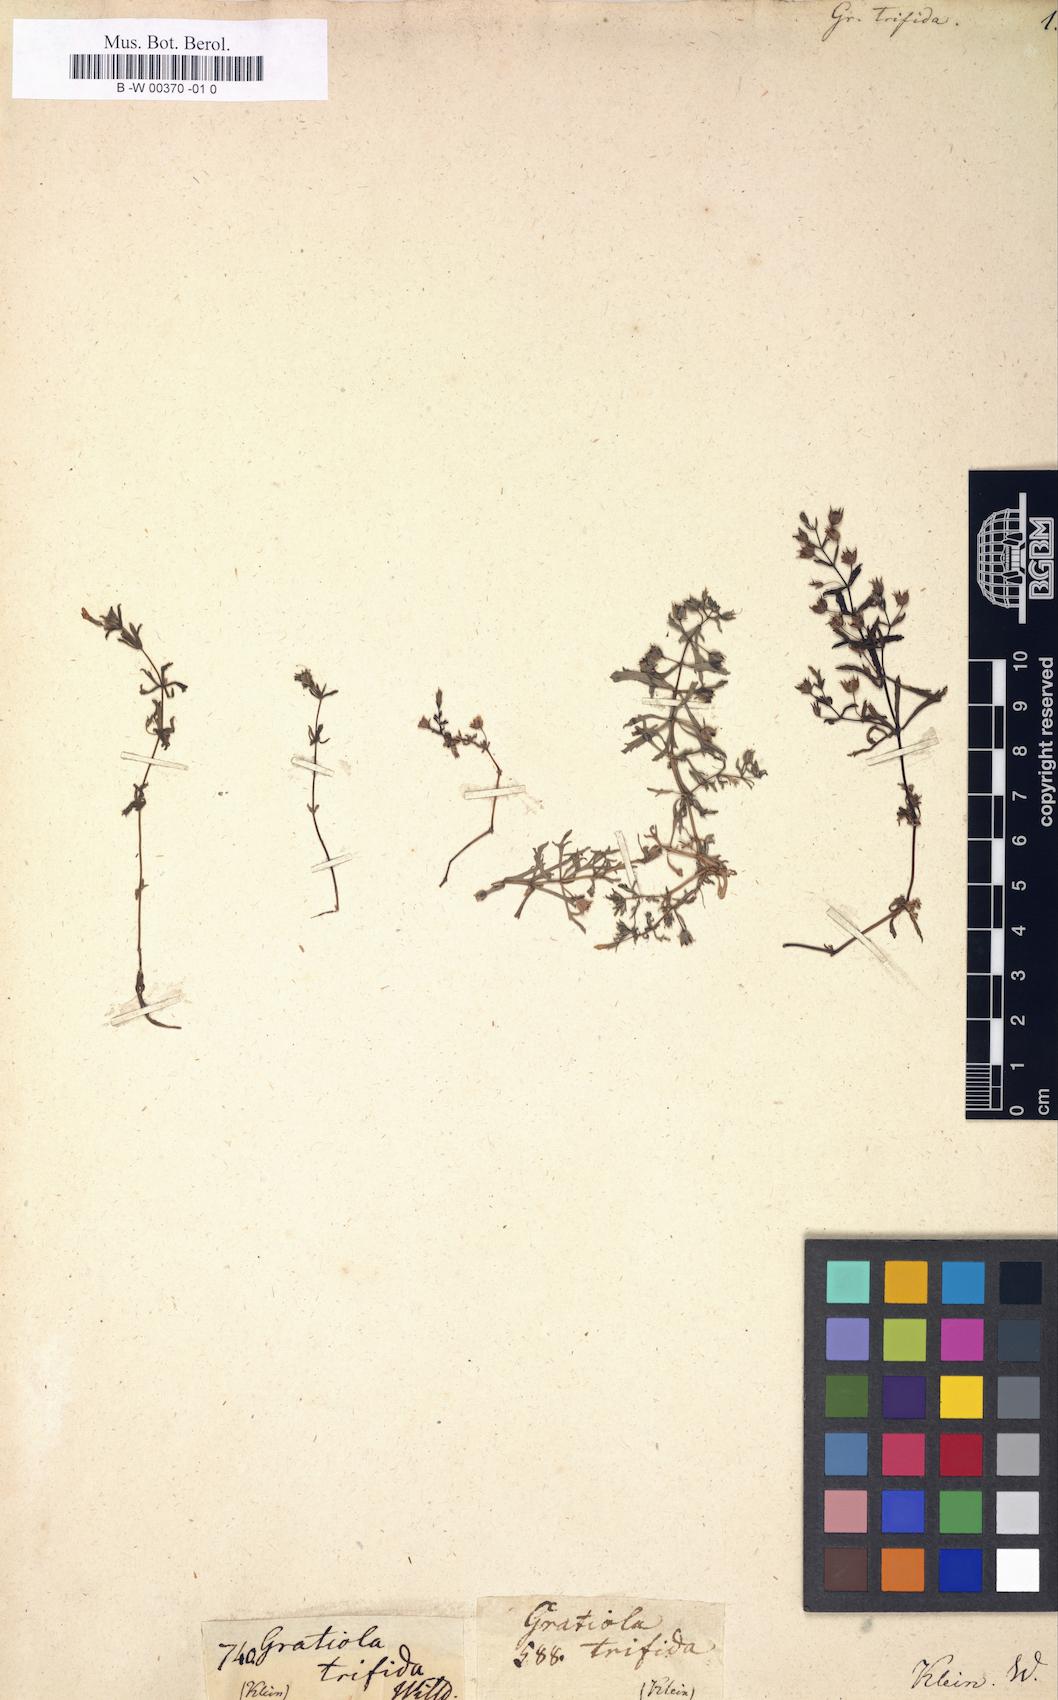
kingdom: Plantae
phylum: Tracheophyta
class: Magnoliopsida
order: Lamiales
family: Plantaginaceae
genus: Limnophila
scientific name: Limnophila indica
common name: Indian marshweed
